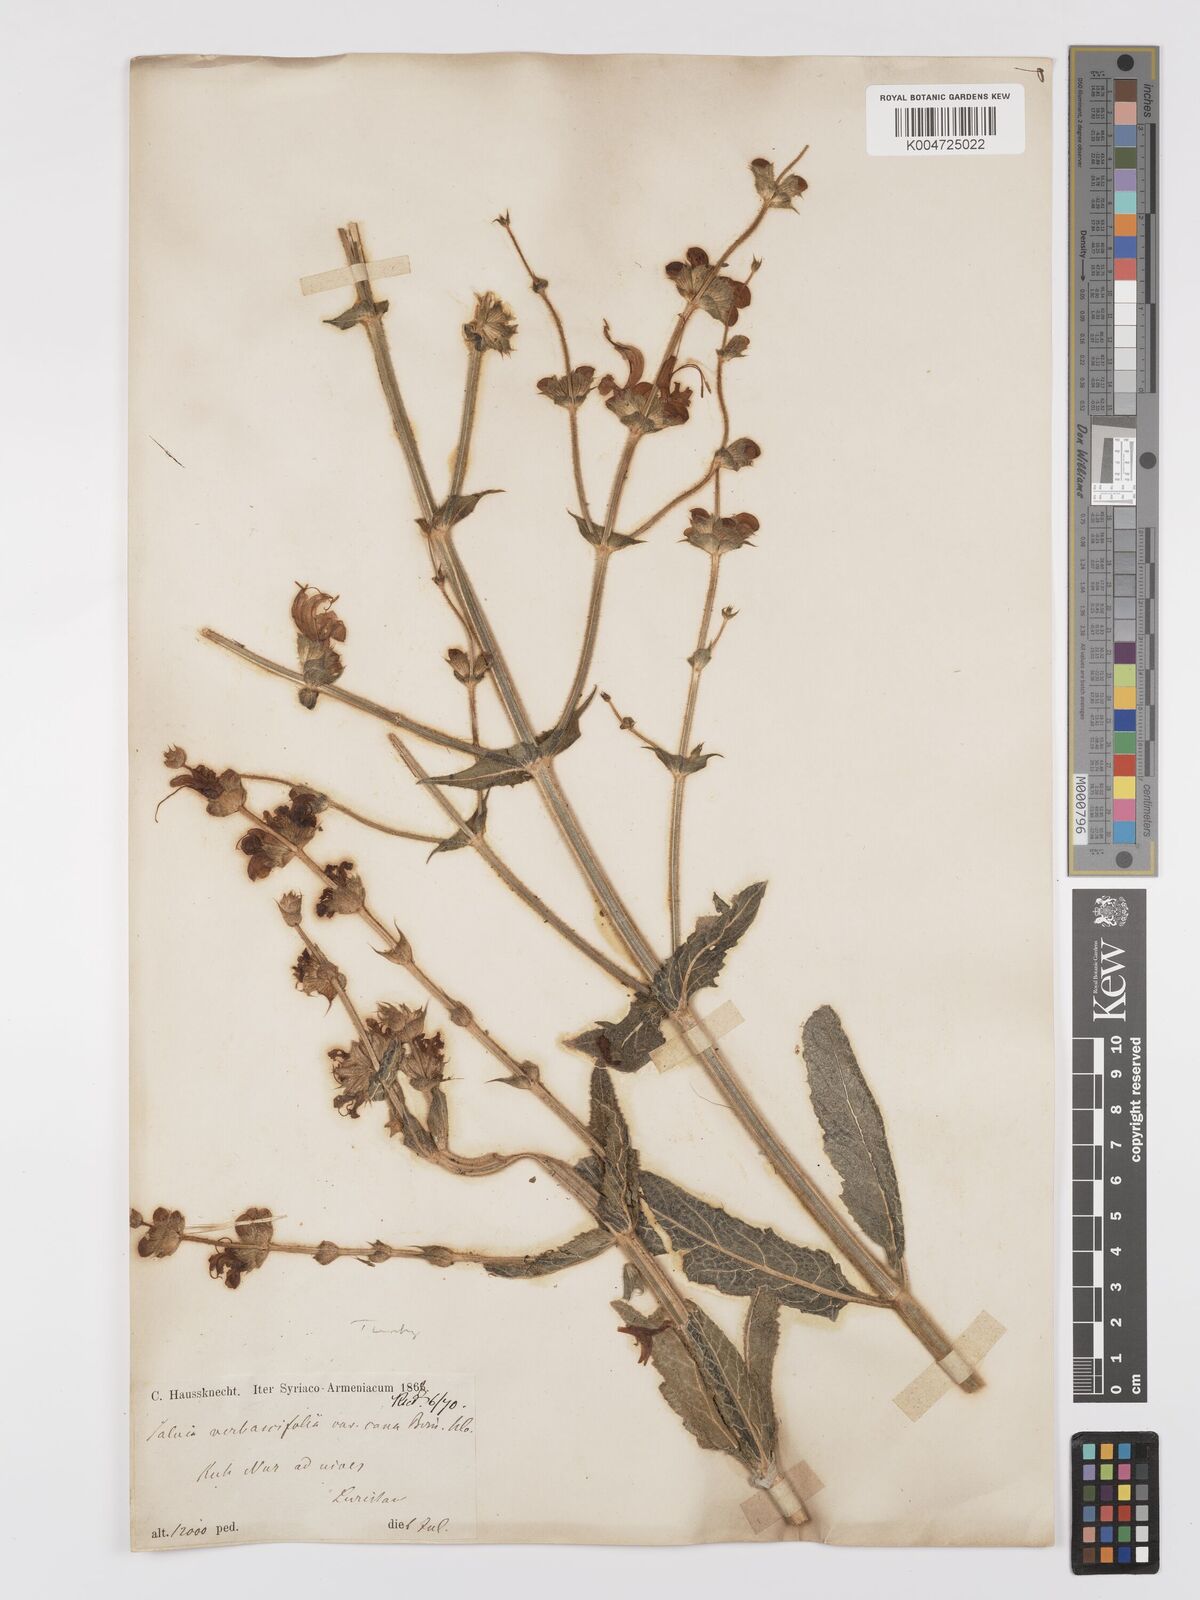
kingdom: Plantae
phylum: Tracheophyta
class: Magnoliopsida
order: Lamiales
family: Lamiaceae
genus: Salvia
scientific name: Salvia verbascifolia
